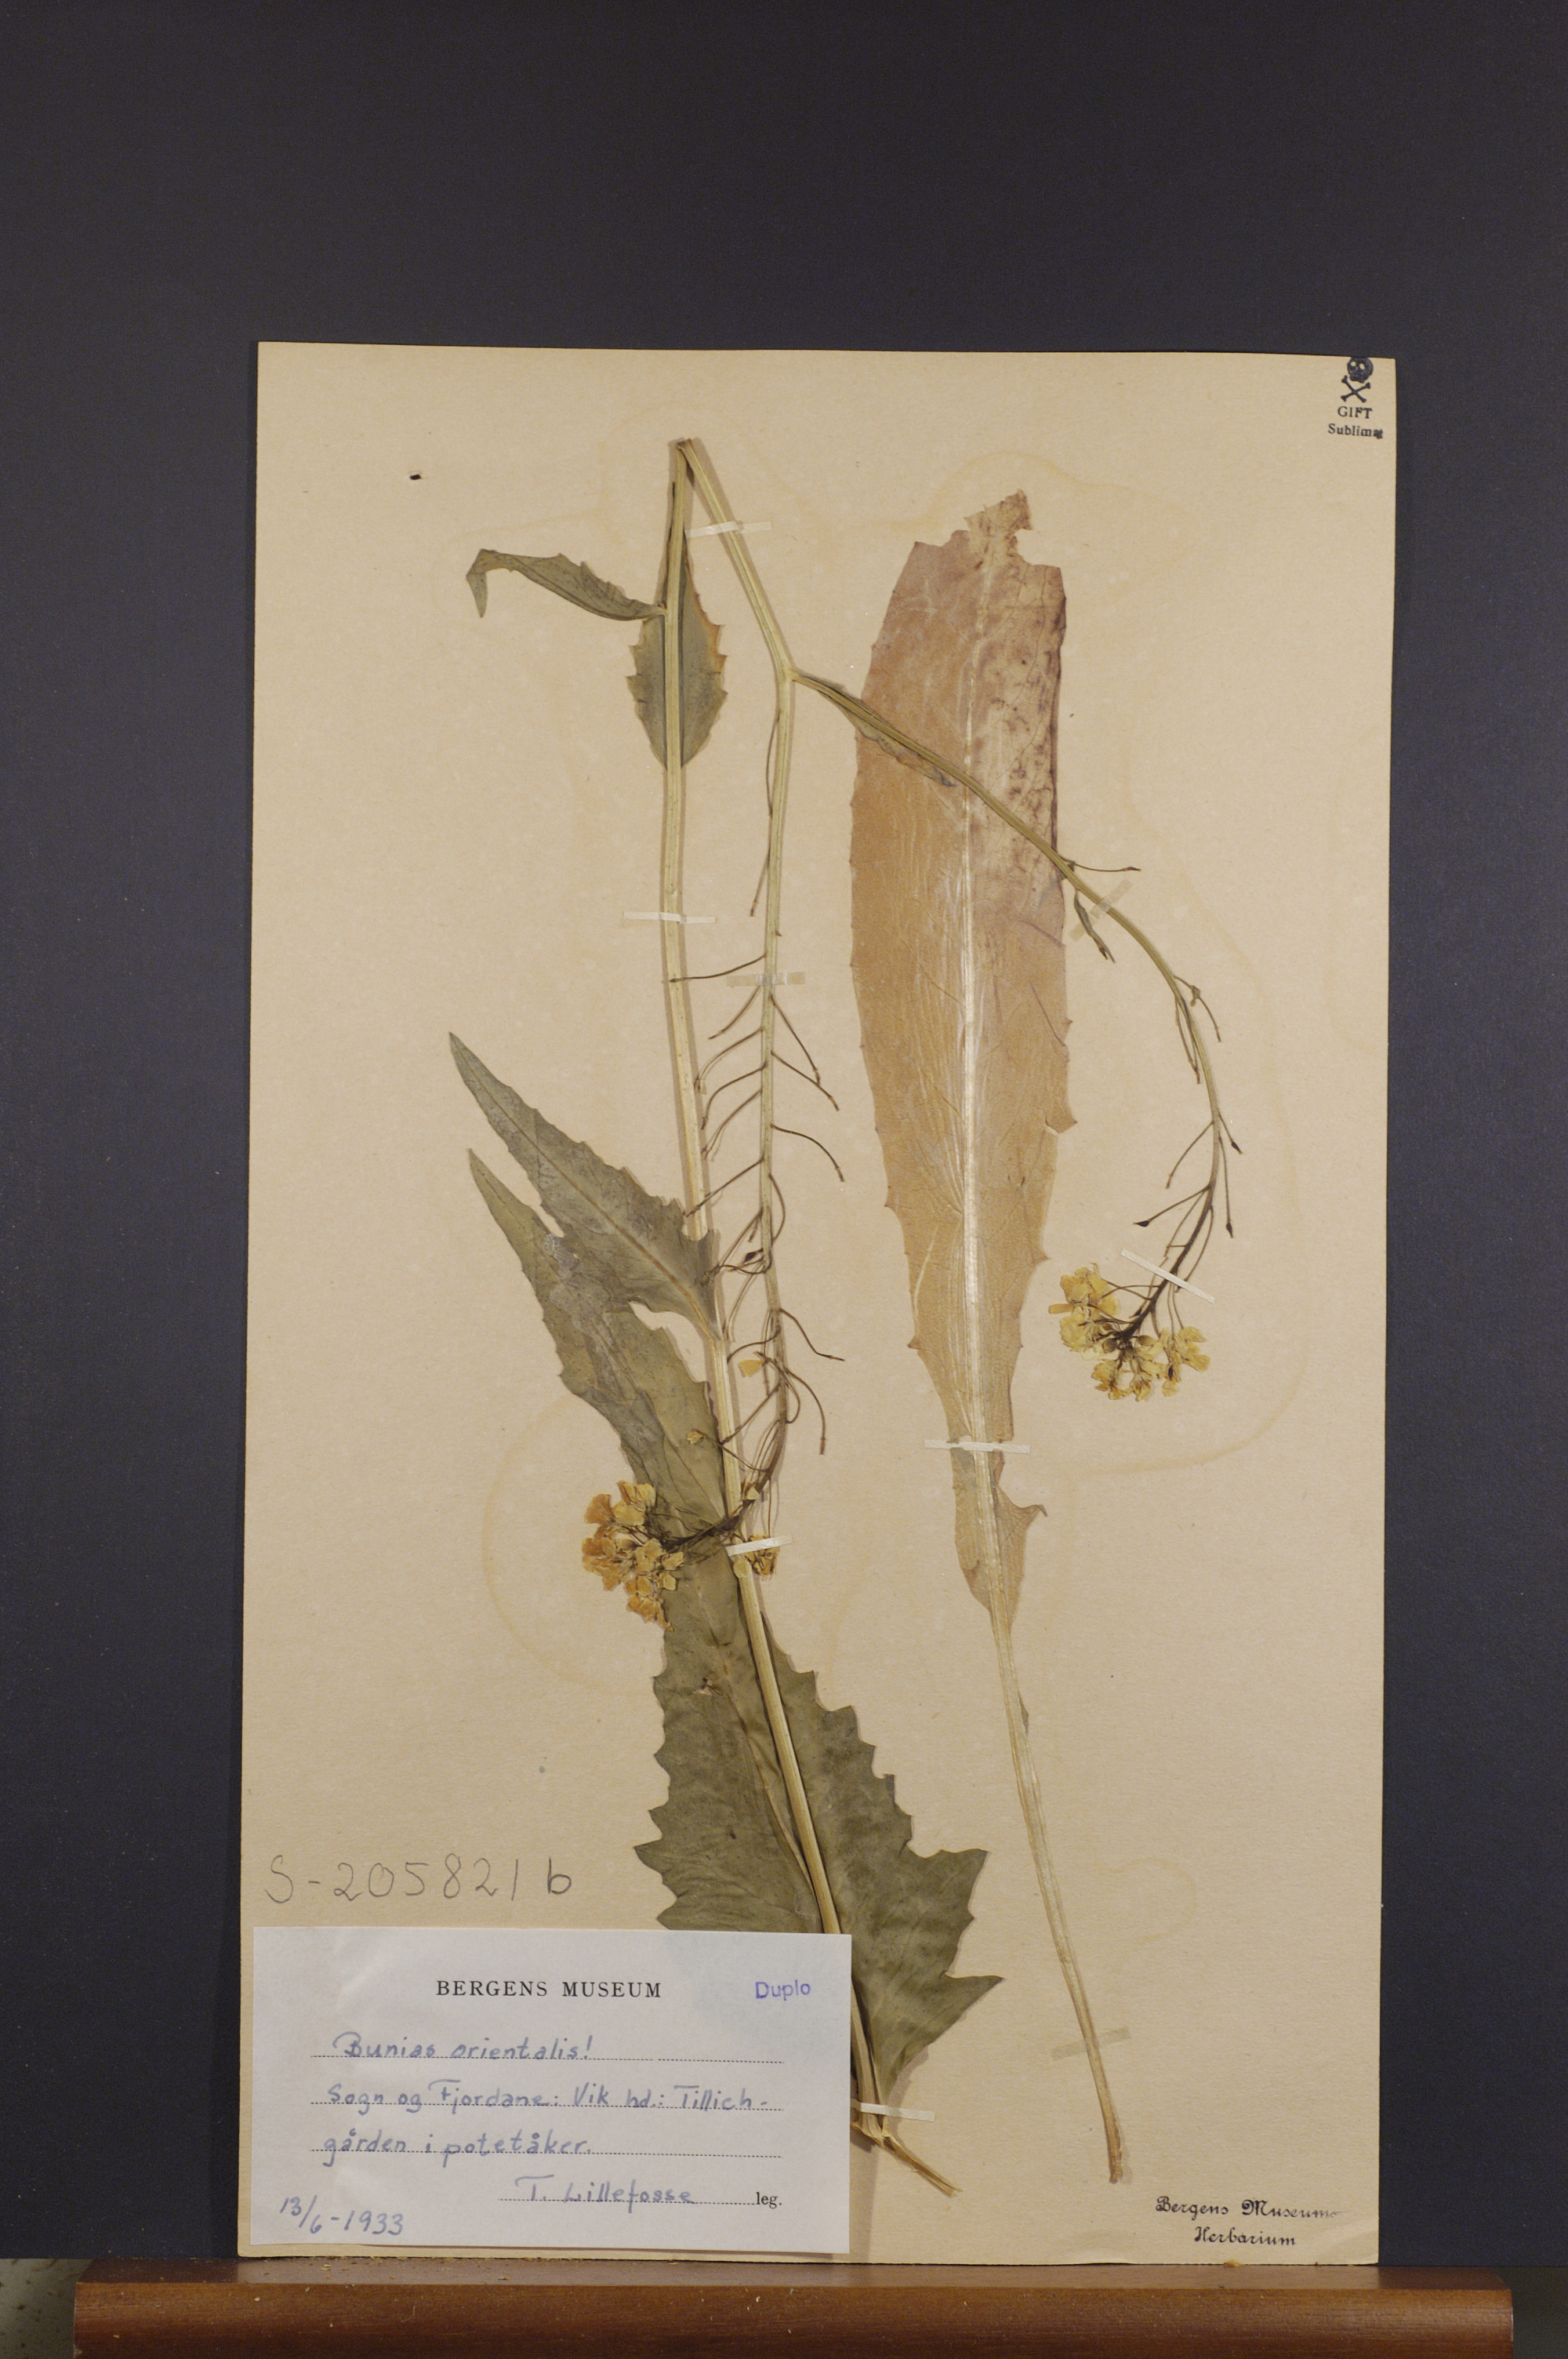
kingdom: Plantae
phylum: Tracheophyta
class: Magnoliopsida
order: Brassicales
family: Brassicaceae
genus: Bunias
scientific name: Bunias orientalis
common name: Warty-cabbage
